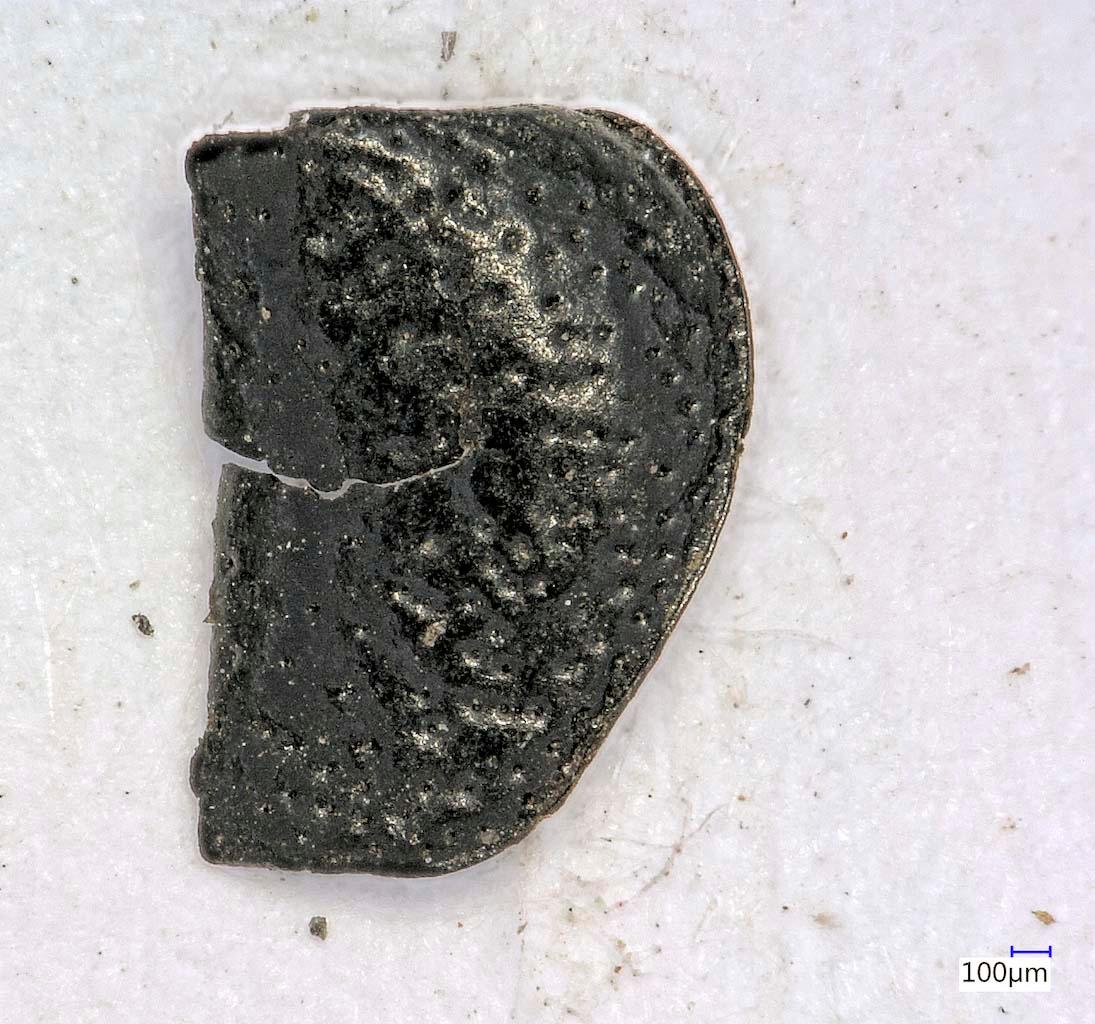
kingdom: Animalia
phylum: Arthropoda
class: Insecta
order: Coleoptera
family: Carabidae
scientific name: Carabidae
